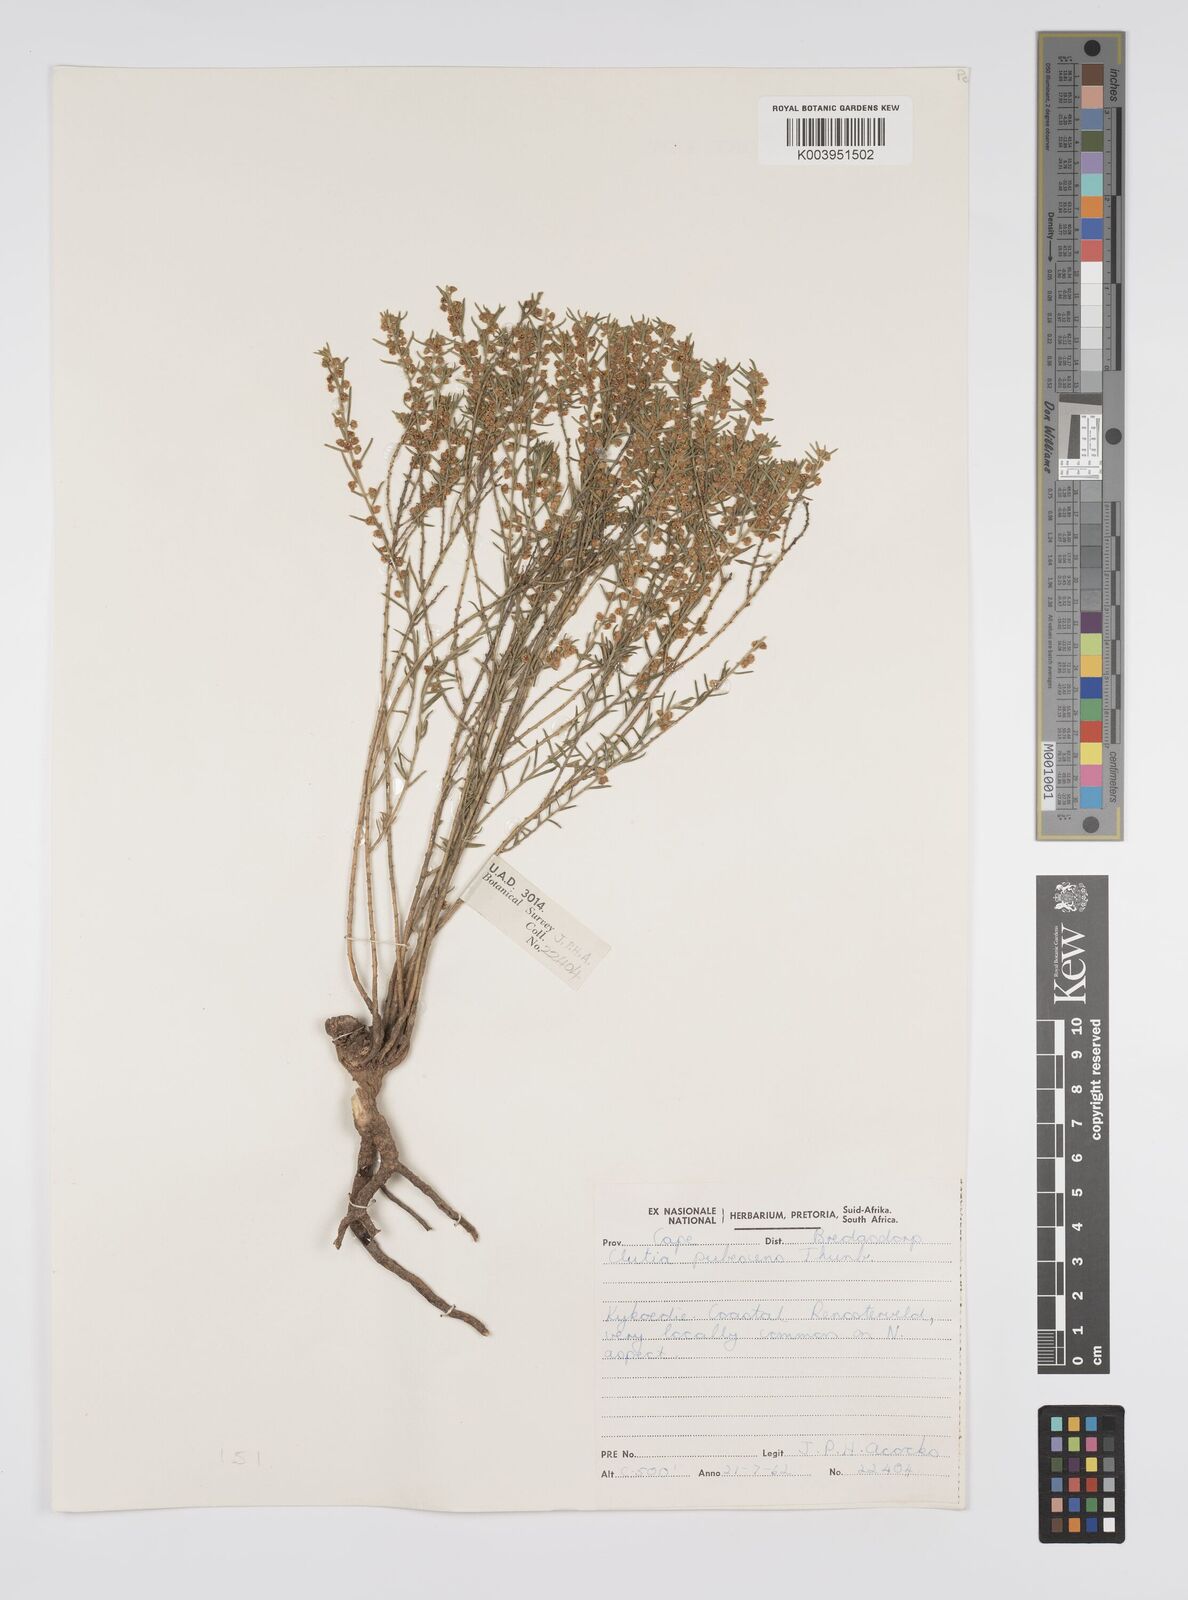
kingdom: Plantae
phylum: Tracheophyta
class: Magnoliopsida
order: Malpighiales
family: Peraceae
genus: Clutia
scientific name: Clutia
